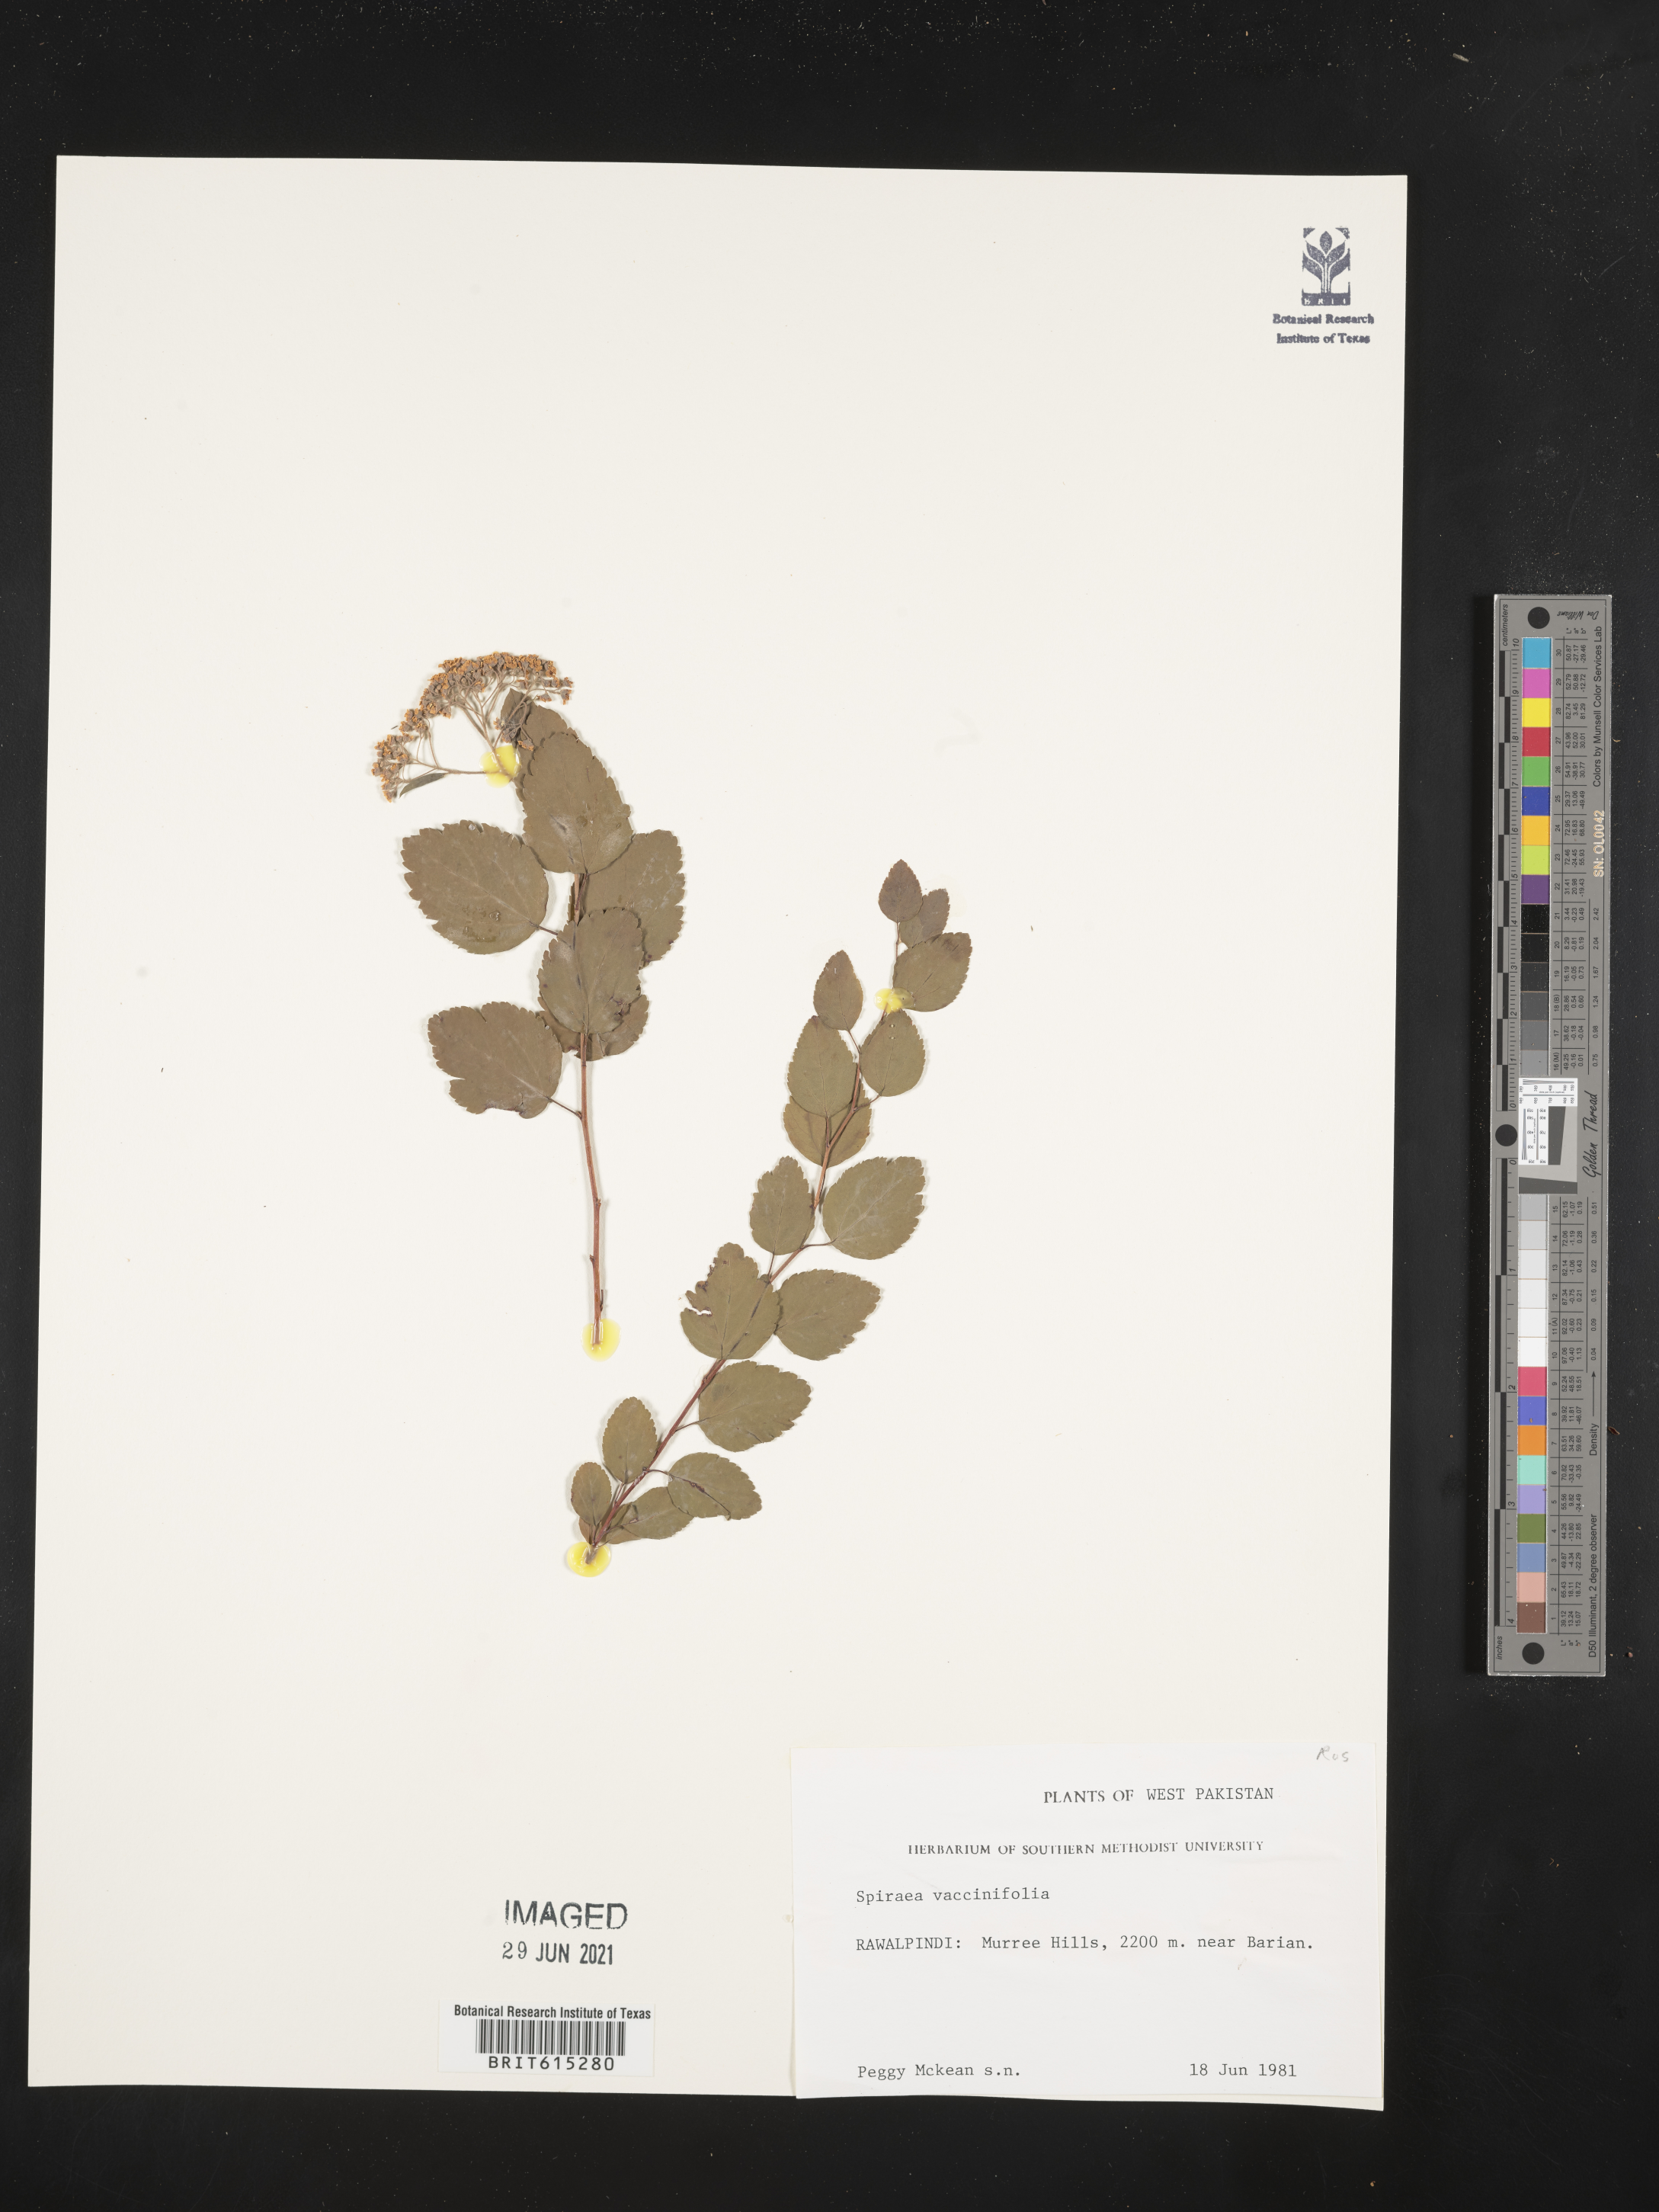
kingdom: Plantae
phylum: Tracheophyta
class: Magnoliopsida
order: Rosales
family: Rosaceae
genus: Spiraea
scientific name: Spiraea vacciniifolia
